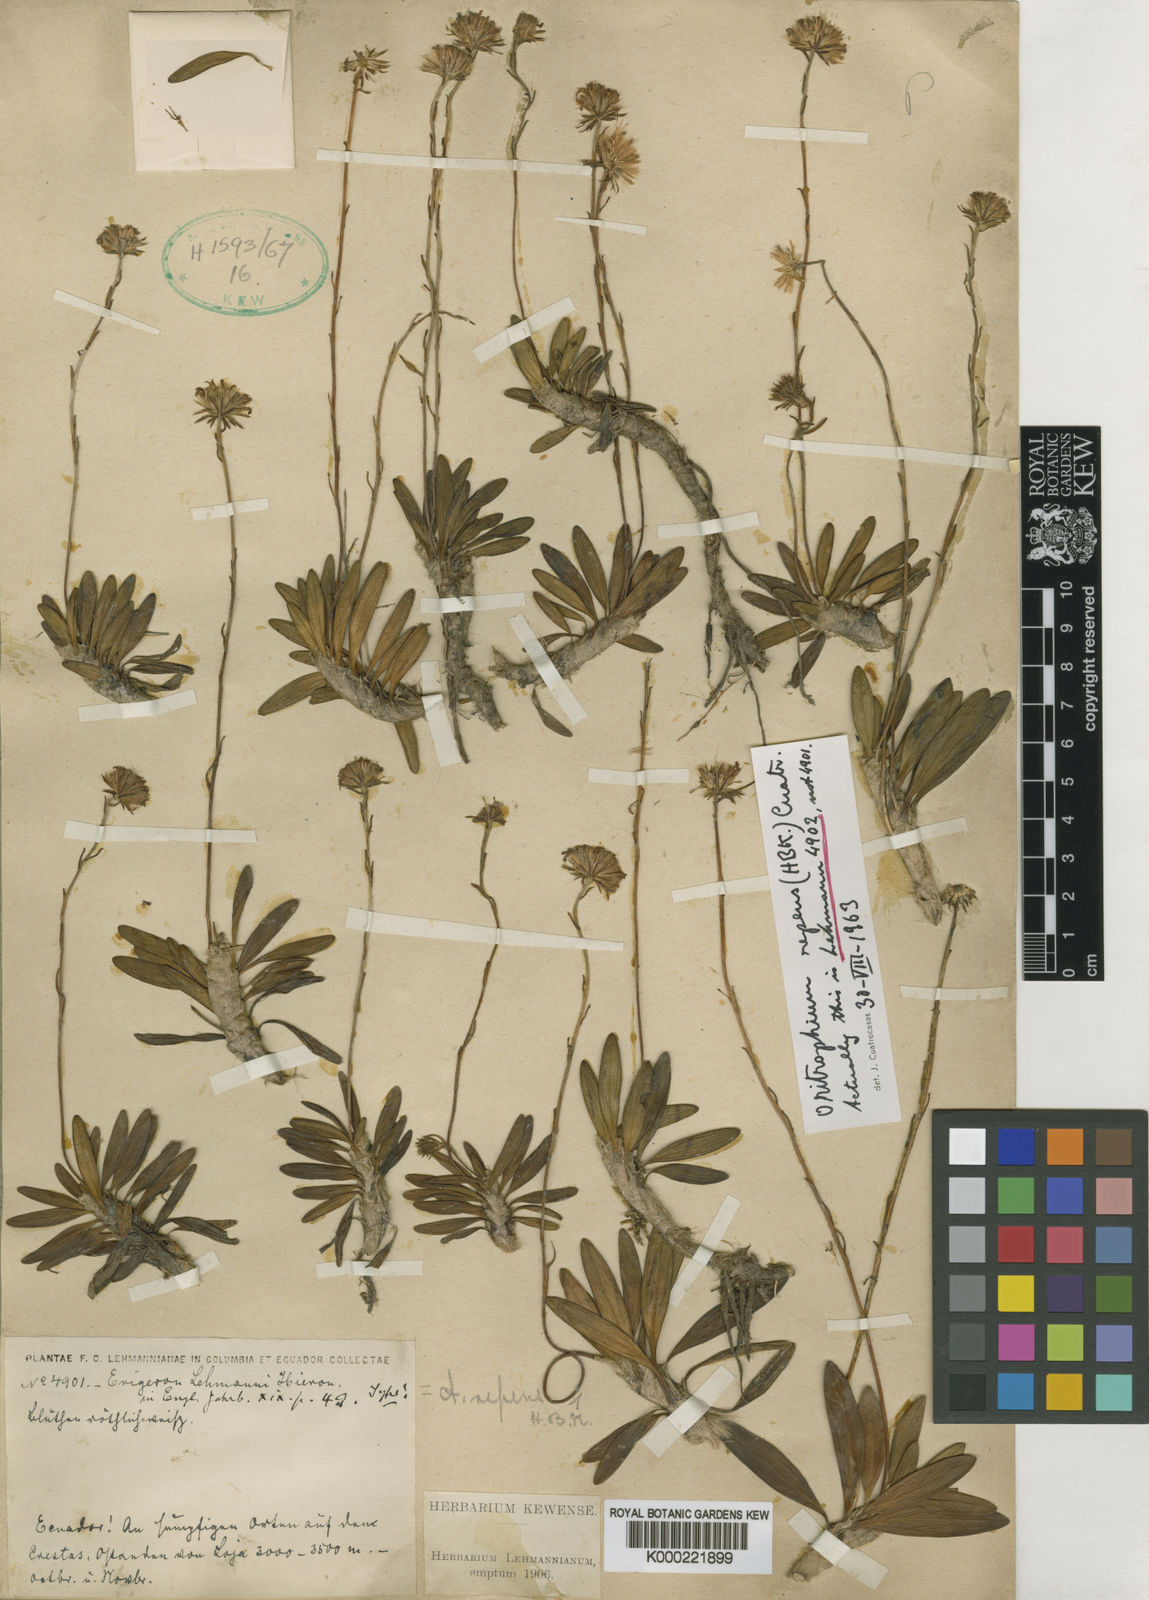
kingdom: Plantae
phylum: Tracheophyta
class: Magnoliopsida
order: Asterales
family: Asteraceae
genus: Oritrophium
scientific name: Oritrophium repens
